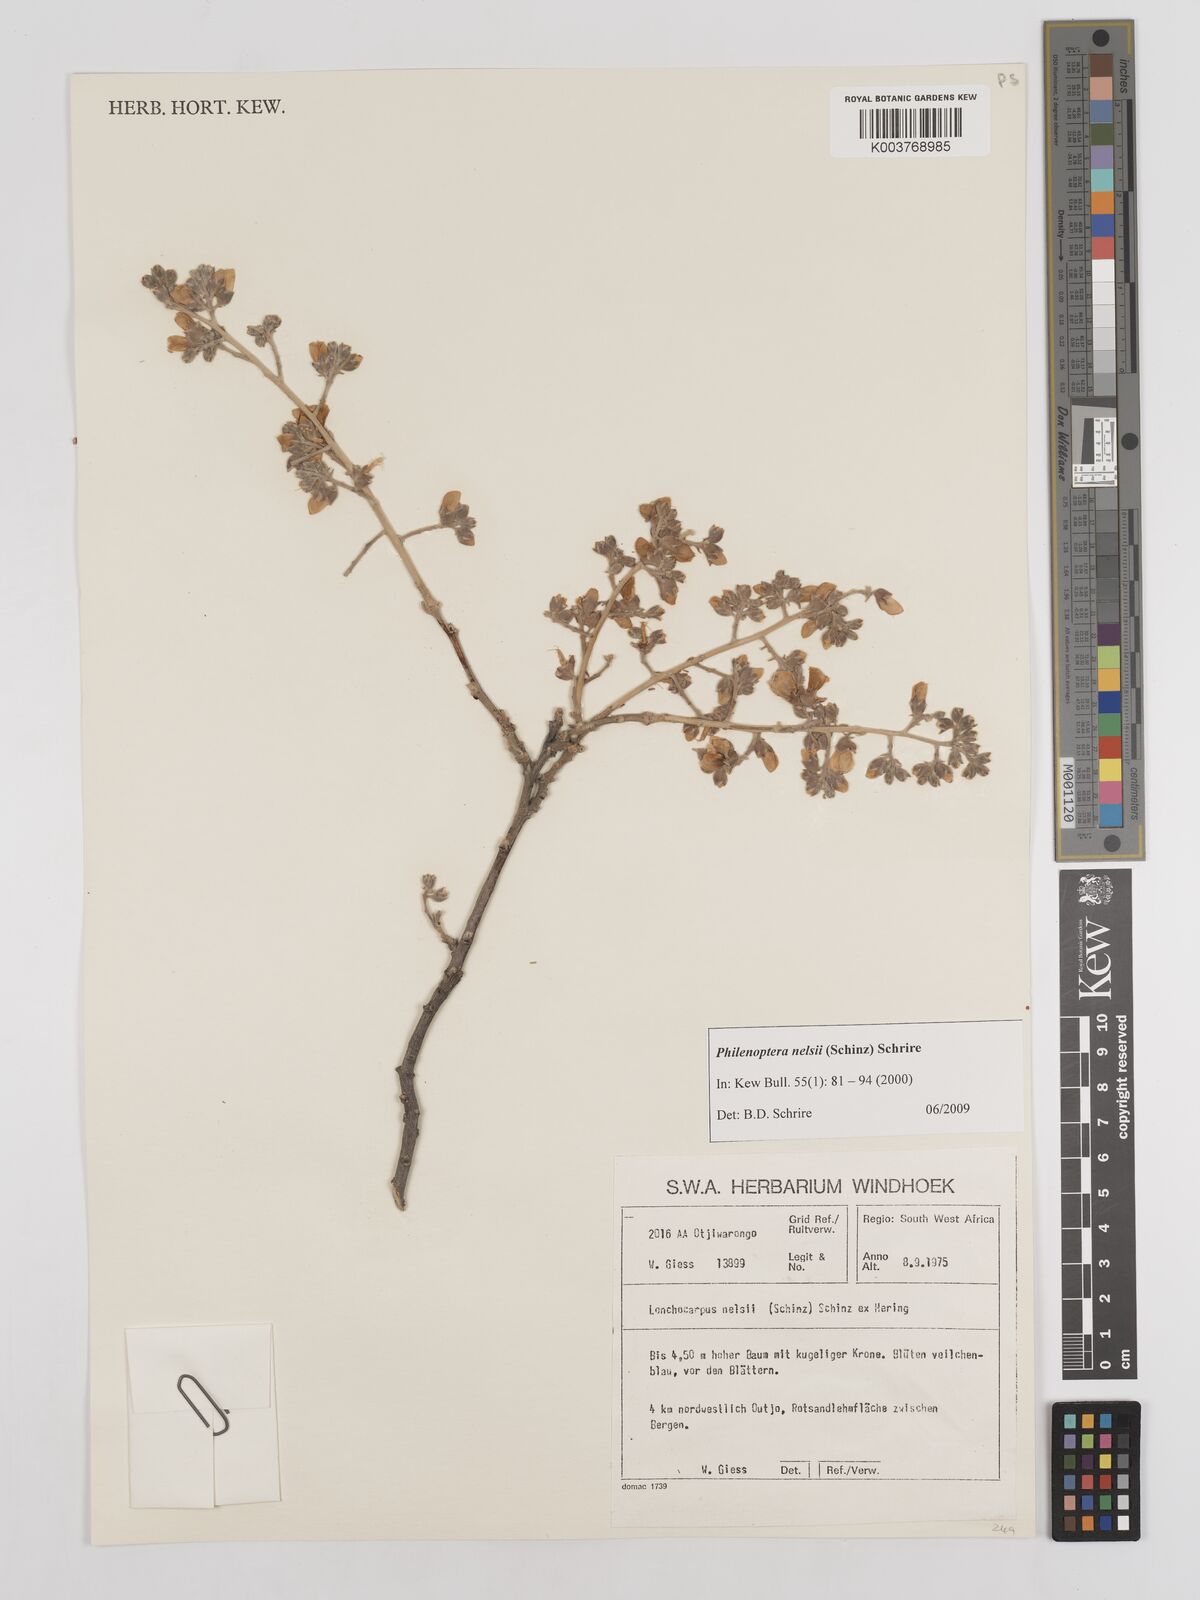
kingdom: Plantae
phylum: Tracheophyta
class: Magnoliopsida
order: Fabales
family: Fabaceae
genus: Philenoptera
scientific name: Philenoptera nelsii
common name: Kalahari apple-leaf
